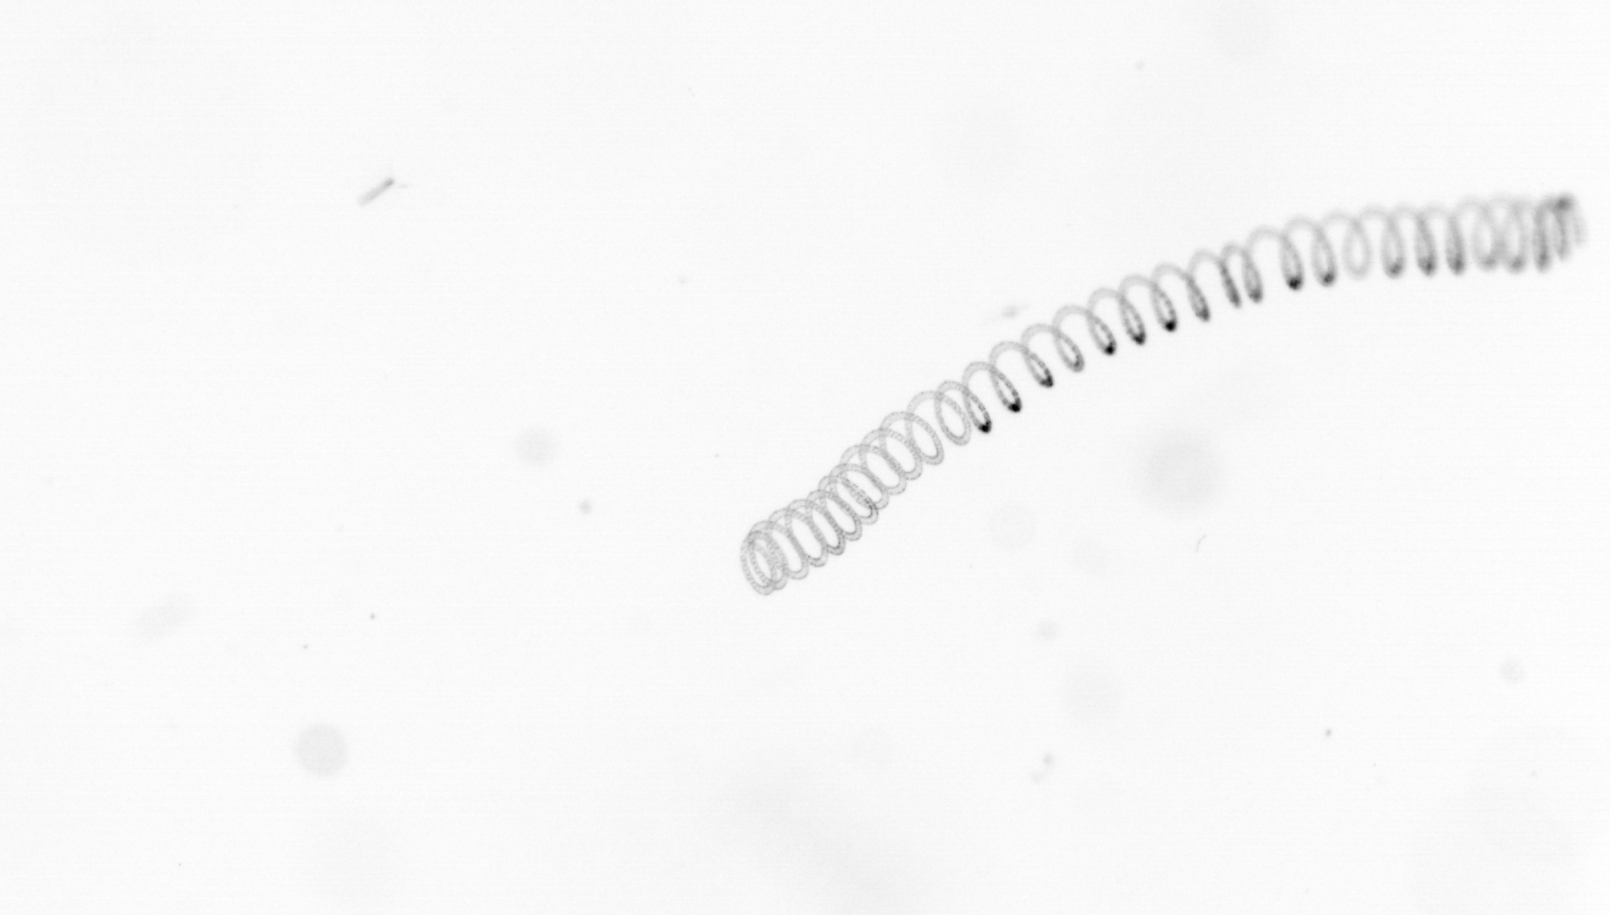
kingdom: Chromista
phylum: Ochrophyta
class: Bacillariophyceae
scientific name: Bacillariophyceae
